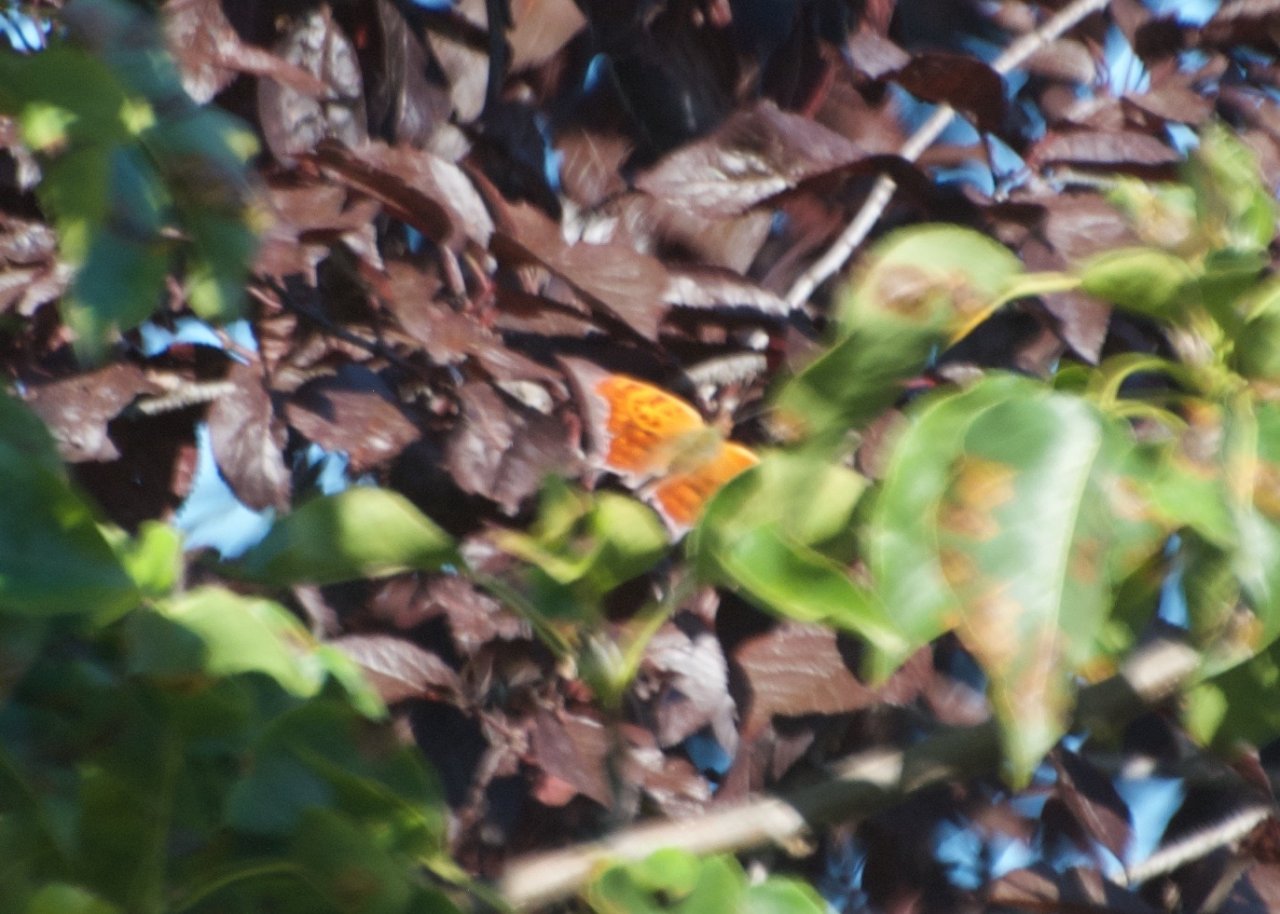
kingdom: Animalia
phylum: Arthropoda
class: Insecta
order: Lepidoptera
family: Nymphalidae
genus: Polygonia
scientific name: Polygonia interrogationis
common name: Question Mark
